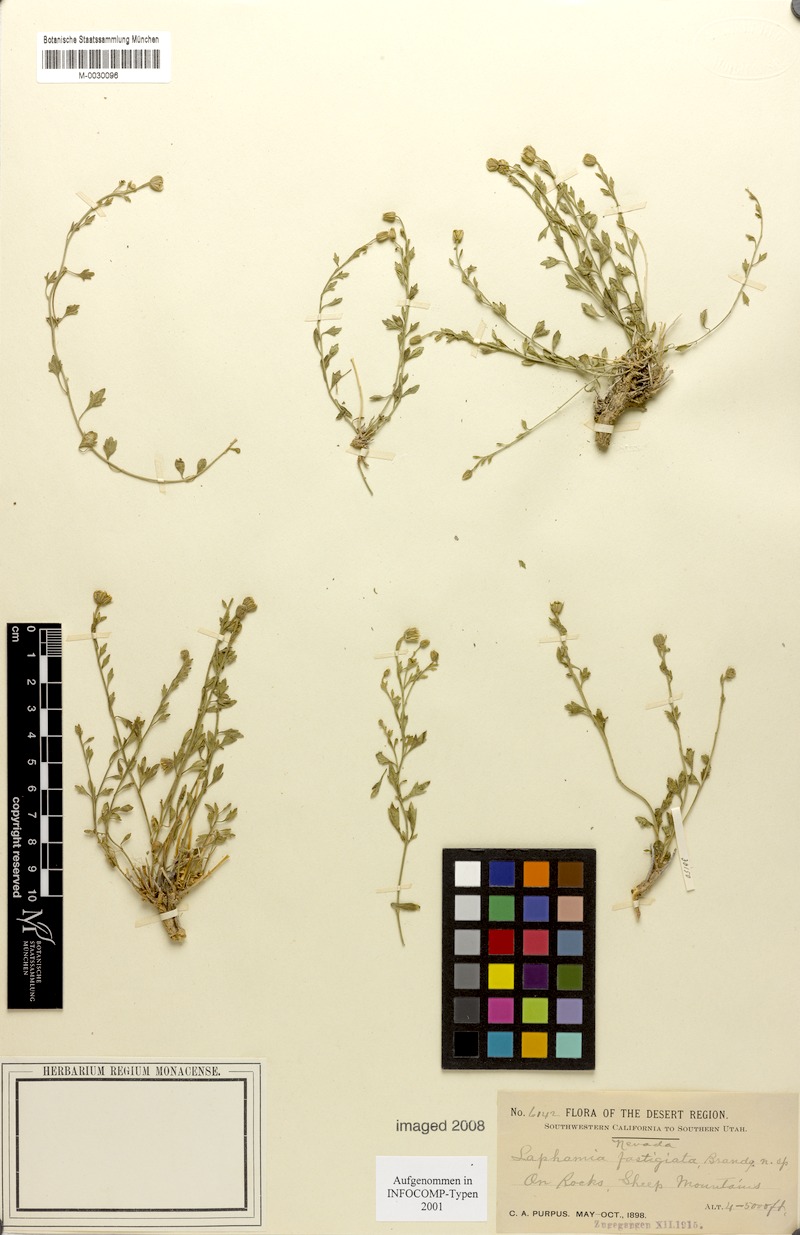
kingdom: Plantae
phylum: Tracheophyta
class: Magnoliopsida
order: Asterales
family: Asteraceae
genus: Laphamia
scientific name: Laphamia gracilis
